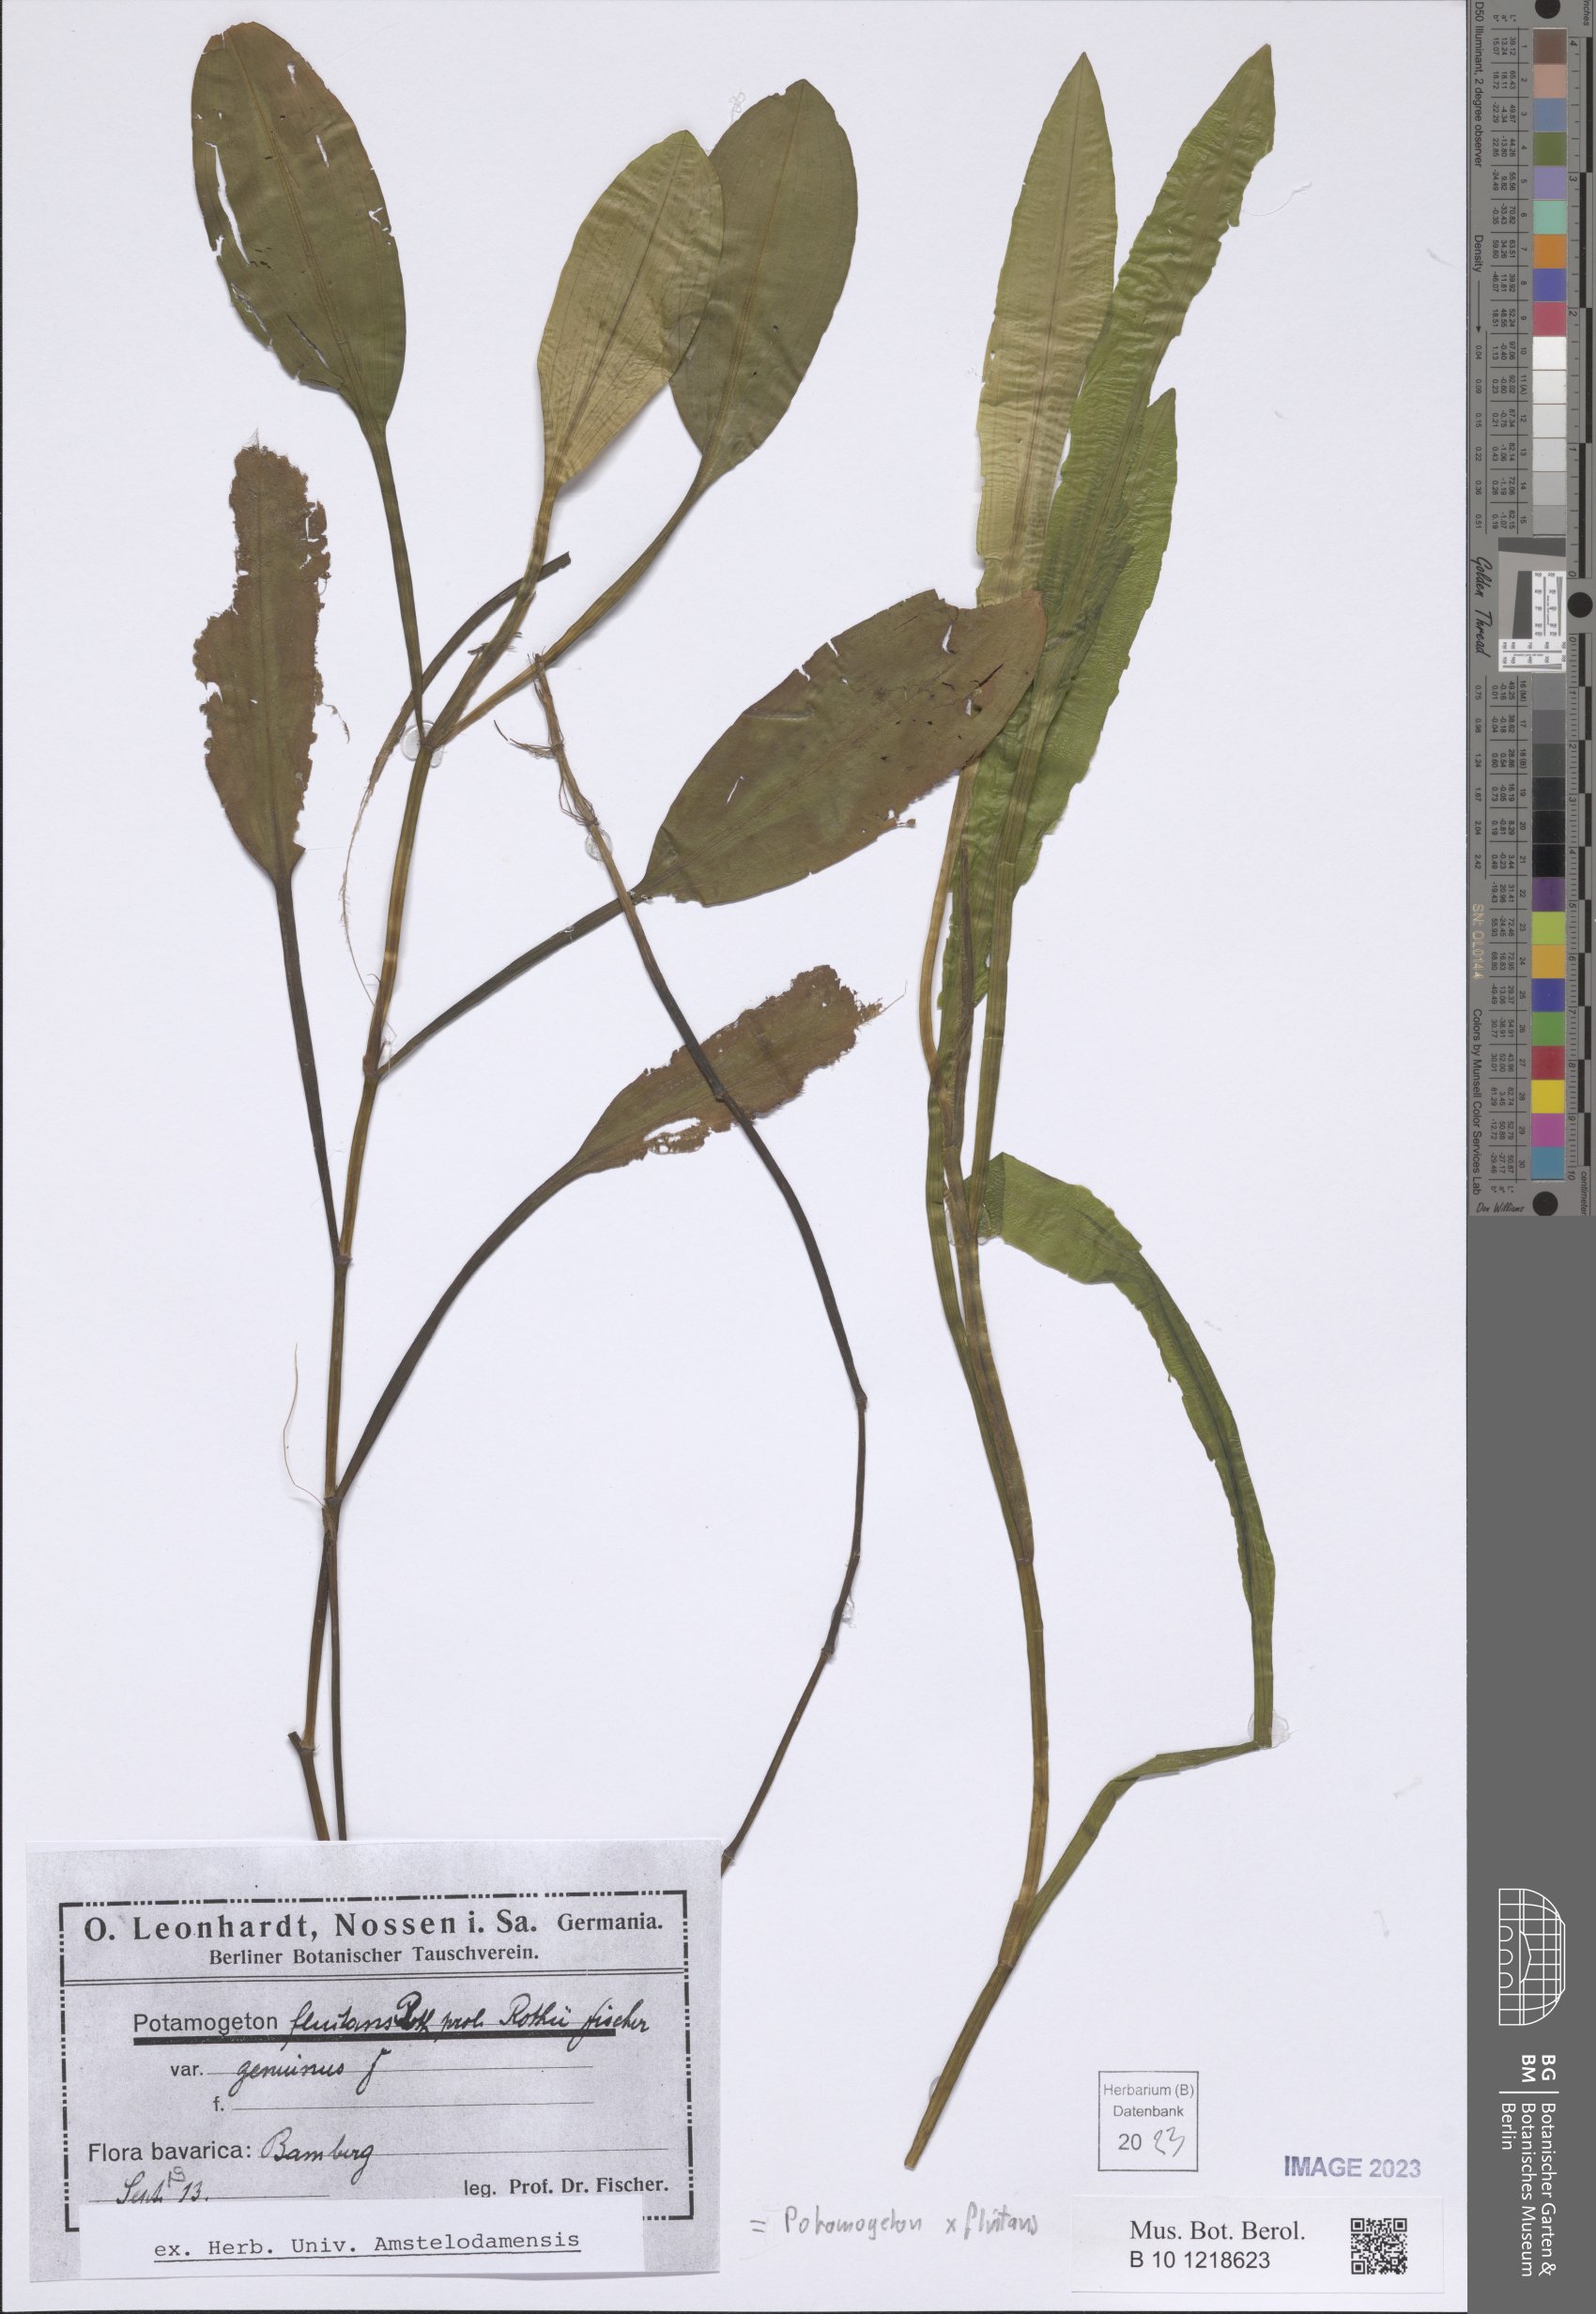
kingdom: Plantae
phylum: Tracheophyta
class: Liliopsida
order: Alismatales
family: Potamogetonaceae
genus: Potamogeton
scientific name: Potamogeton fluitans
